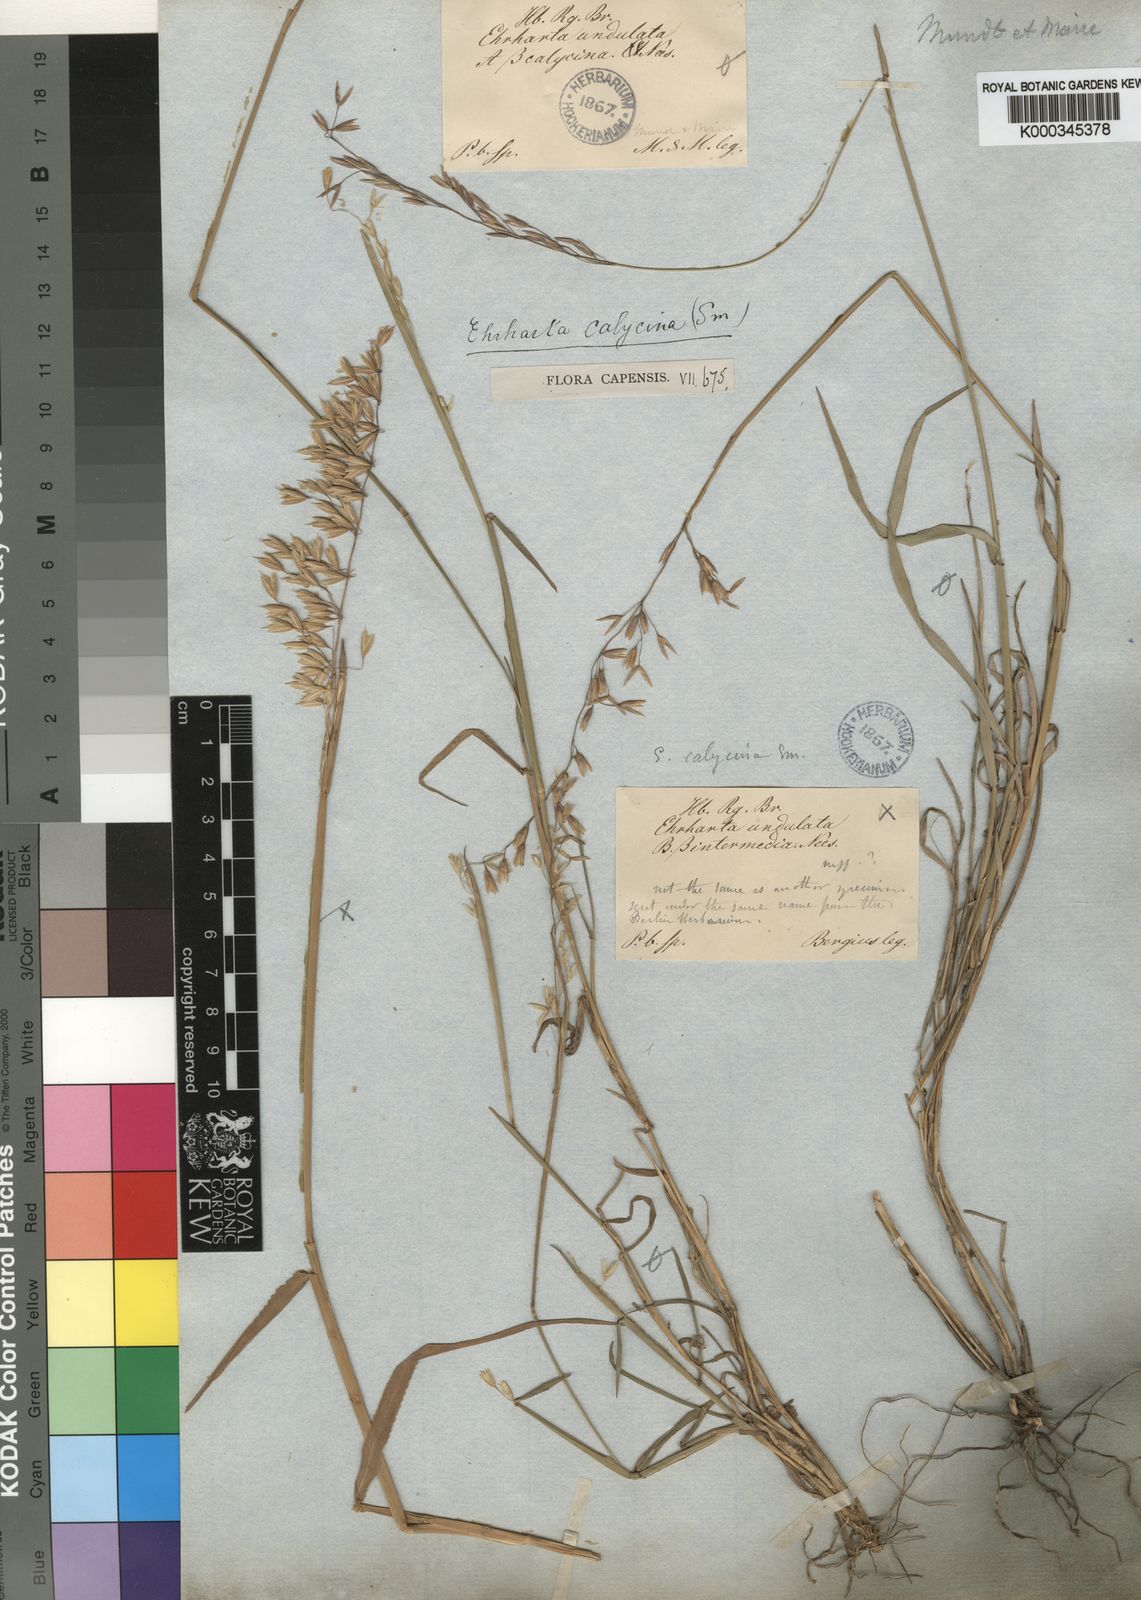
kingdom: Plantae
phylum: Tracheophyta
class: Liliopsida
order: Poales
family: Poaceae
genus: Ehrharta
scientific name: Ehrharta calycina
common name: Perennial veldtgrass
